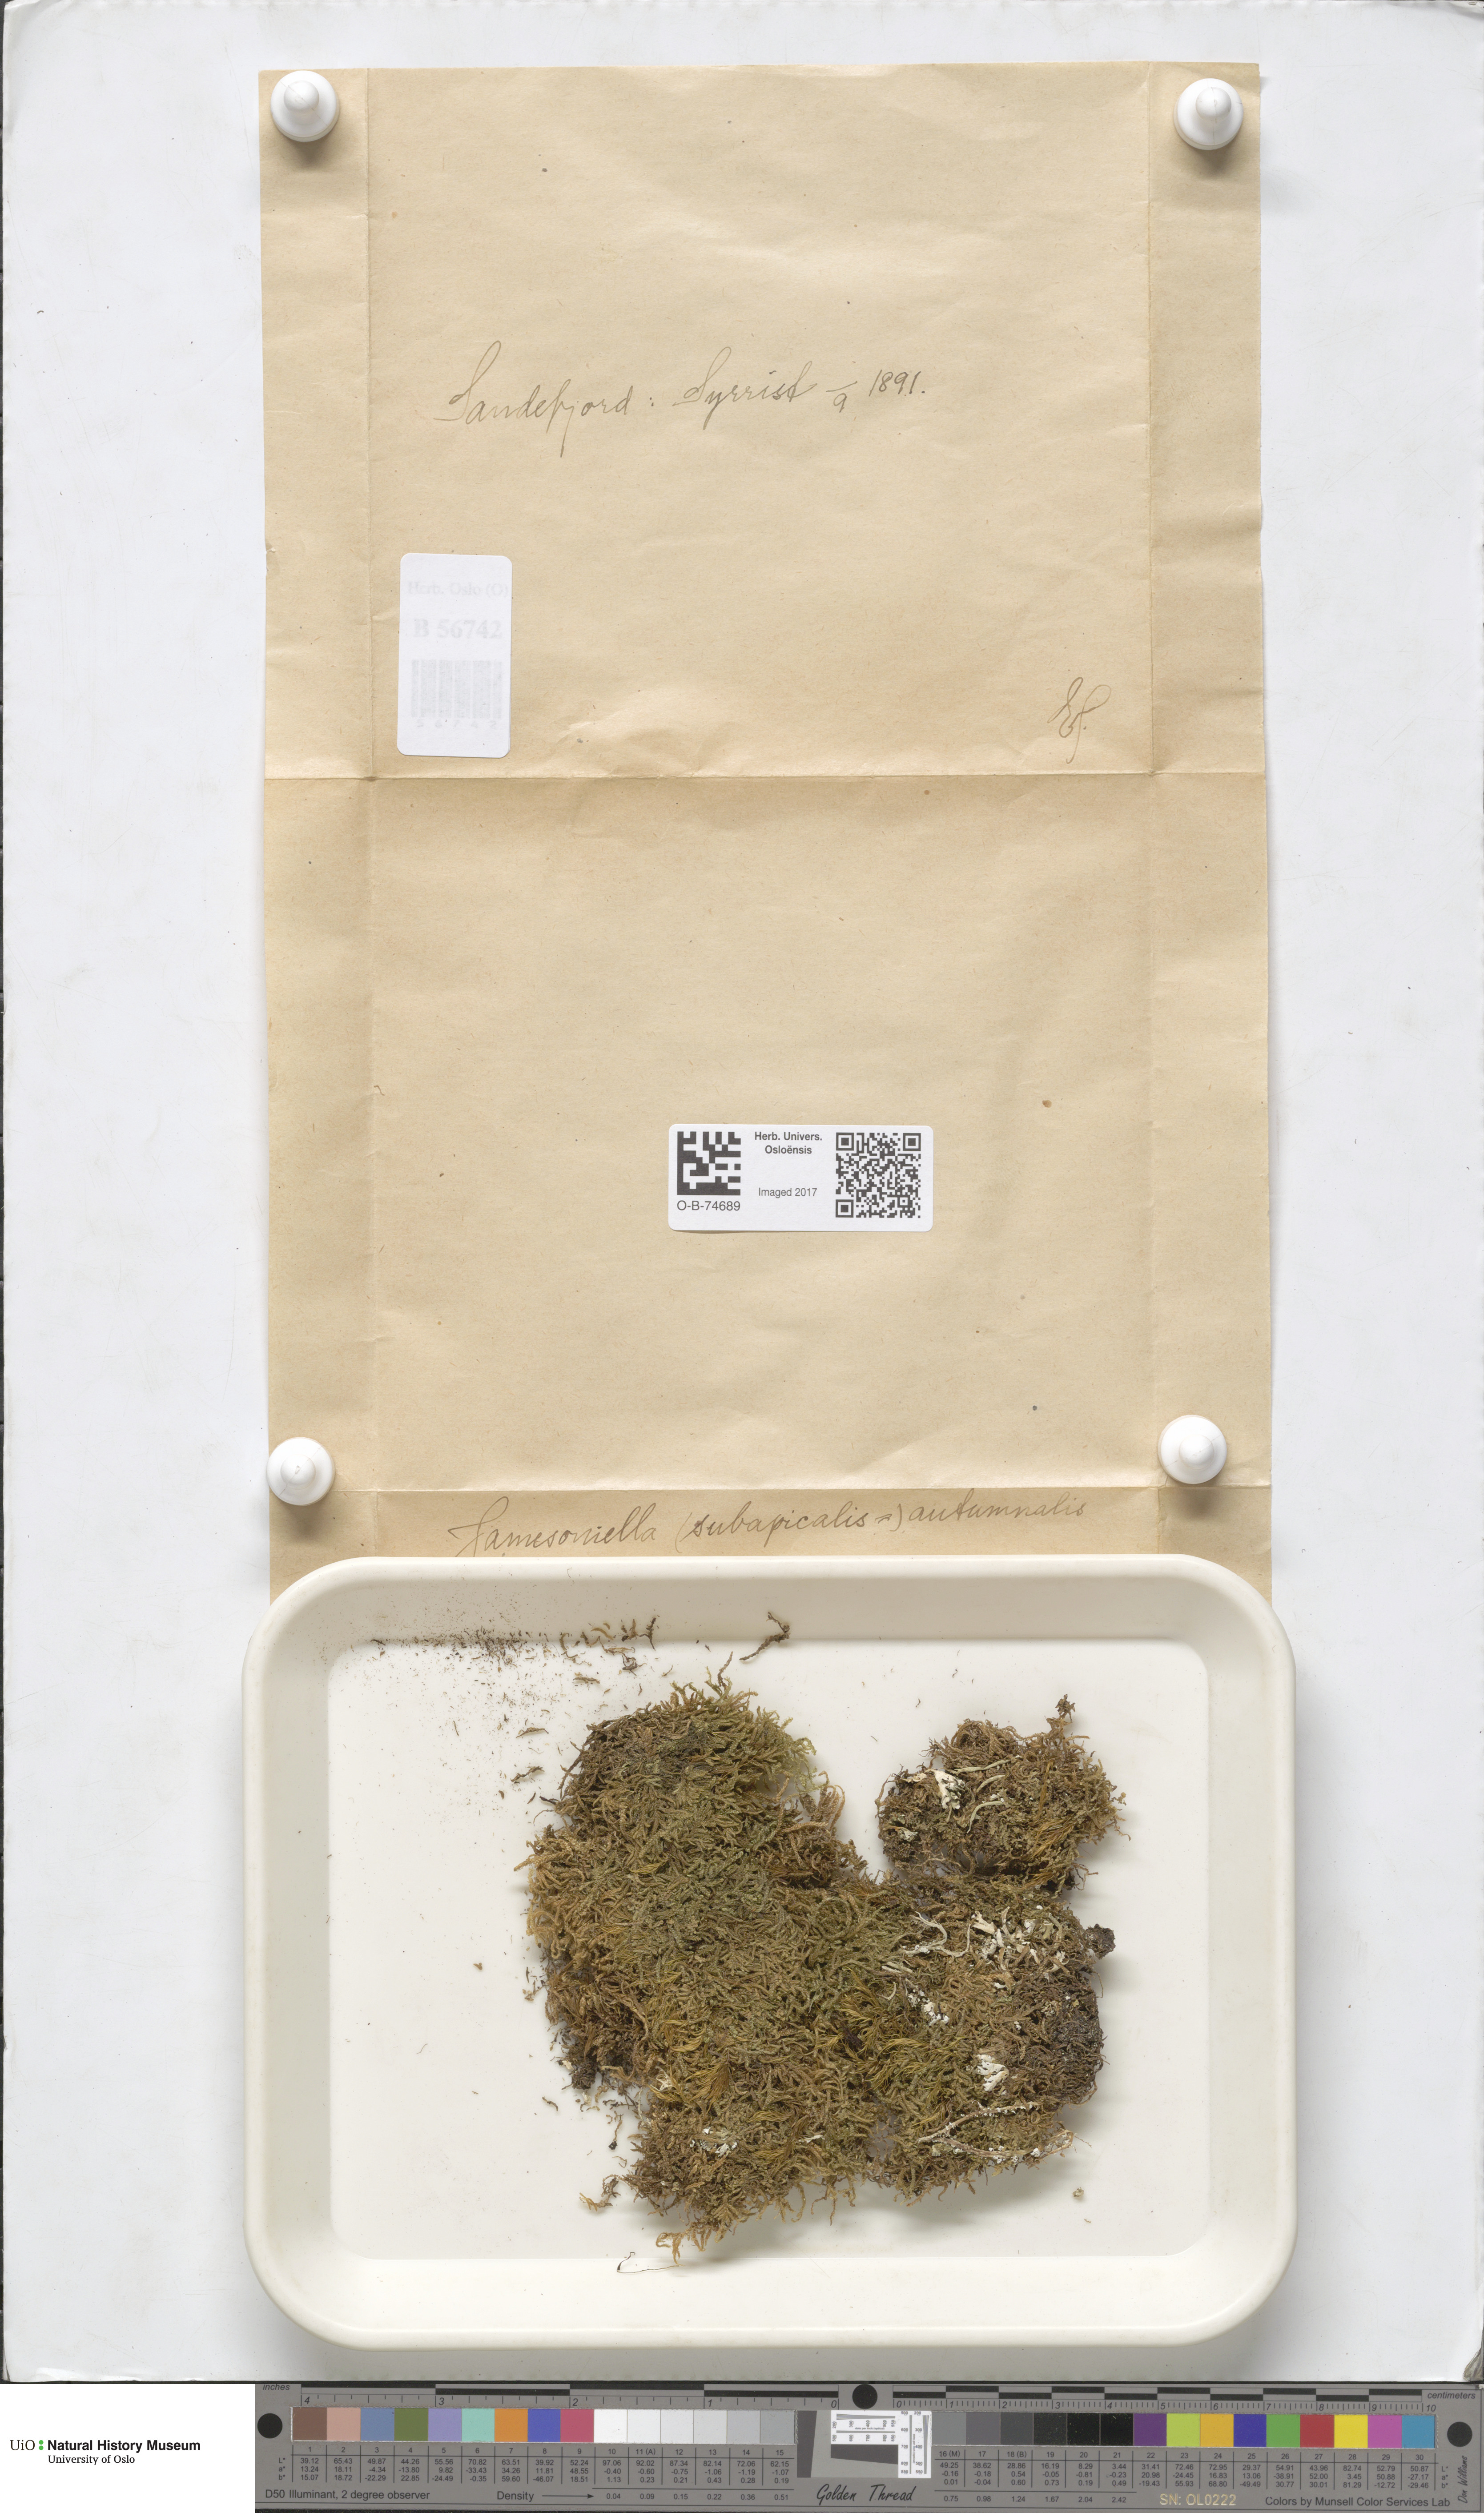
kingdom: Plantae
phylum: Marchantiophyta
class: Jungermanniopsida
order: Jungermanniales
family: Adelanthaceae
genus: Syzygiella
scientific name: Syzygiella autumnalis
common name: Jameson's liverwort
